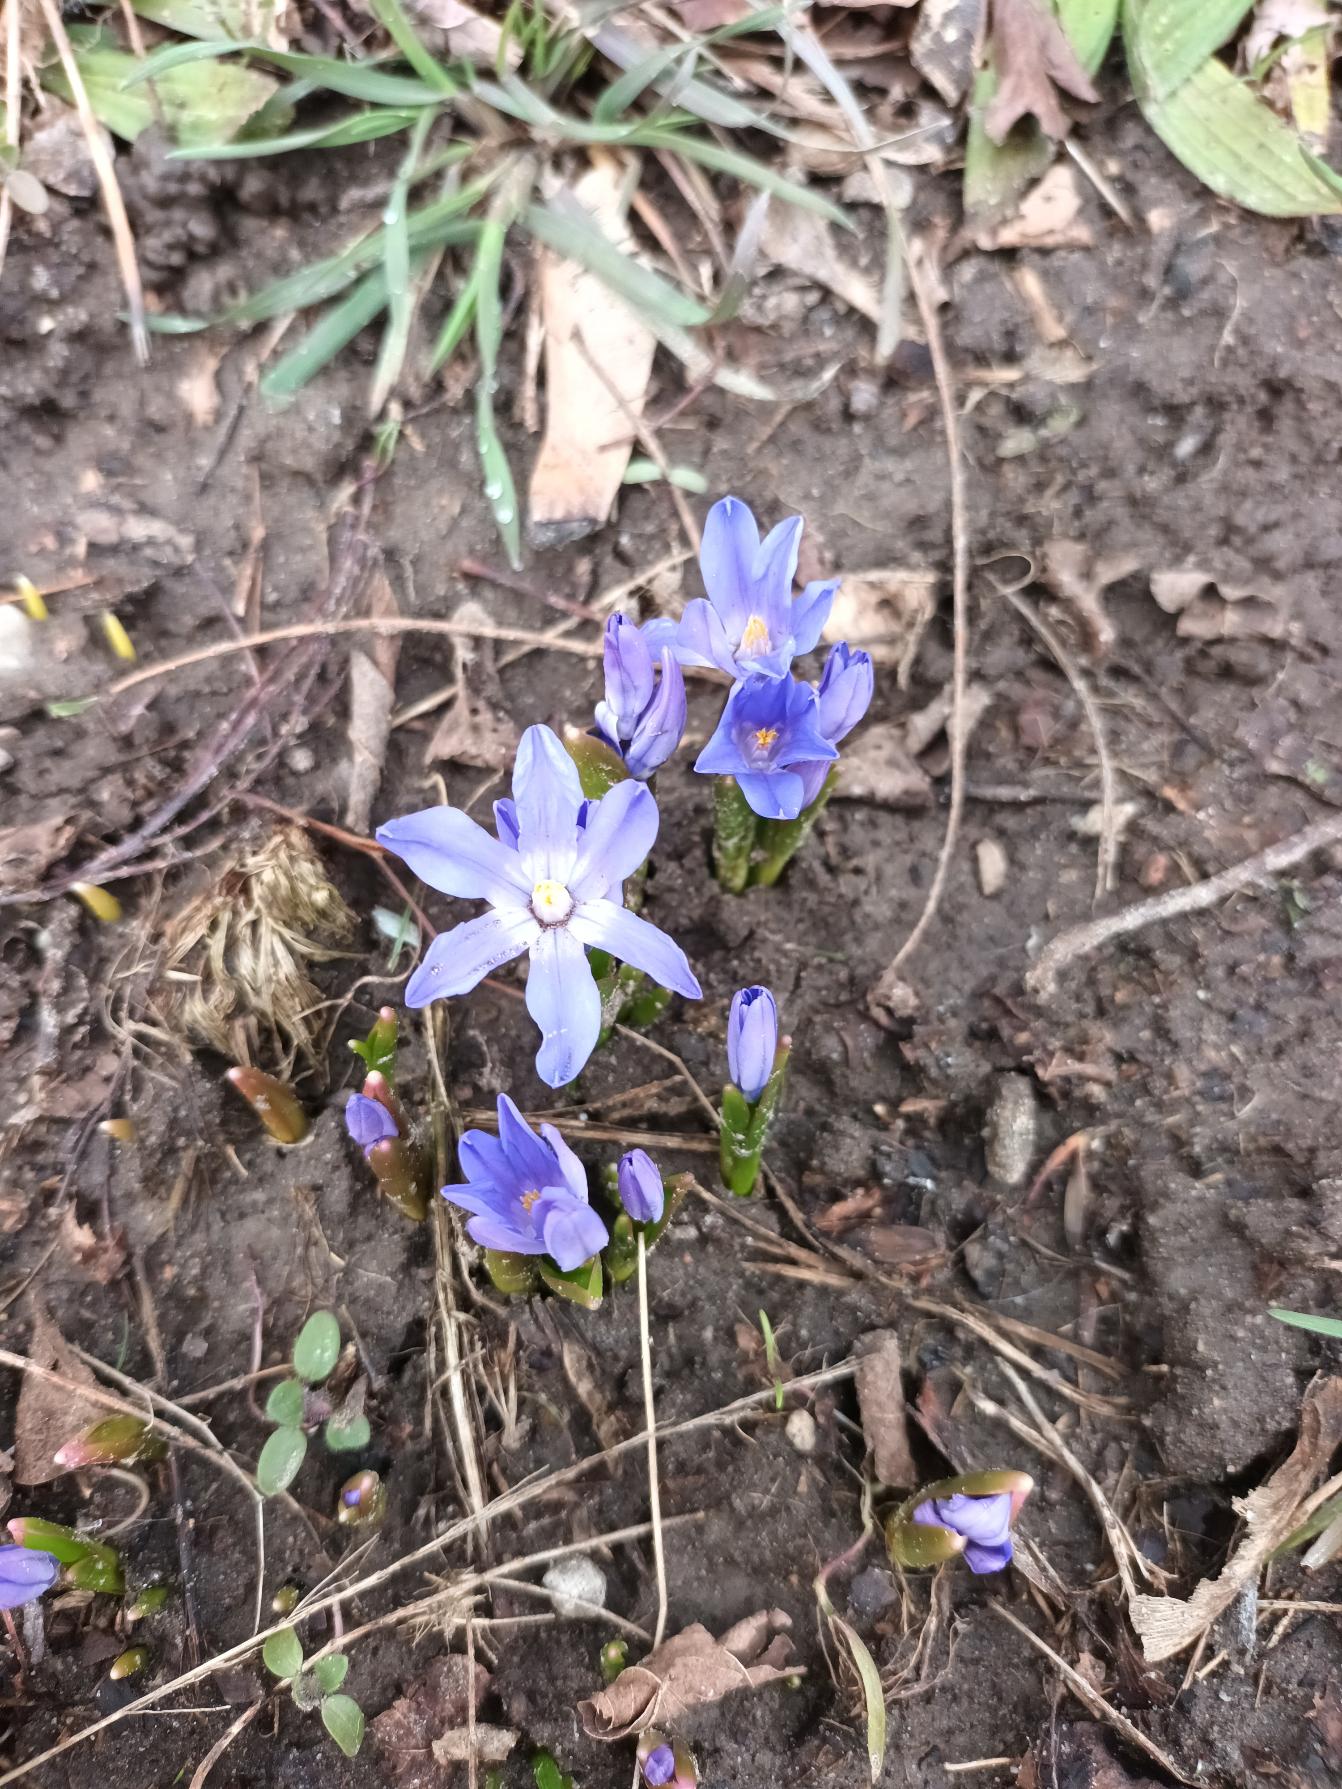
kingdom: Plantae
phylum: Tracheophyta
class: Liliopsida
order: Asparagales
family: Asparagaceae
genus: Scilla
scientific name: Scilla forbesii
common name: Almindelig snepryd
